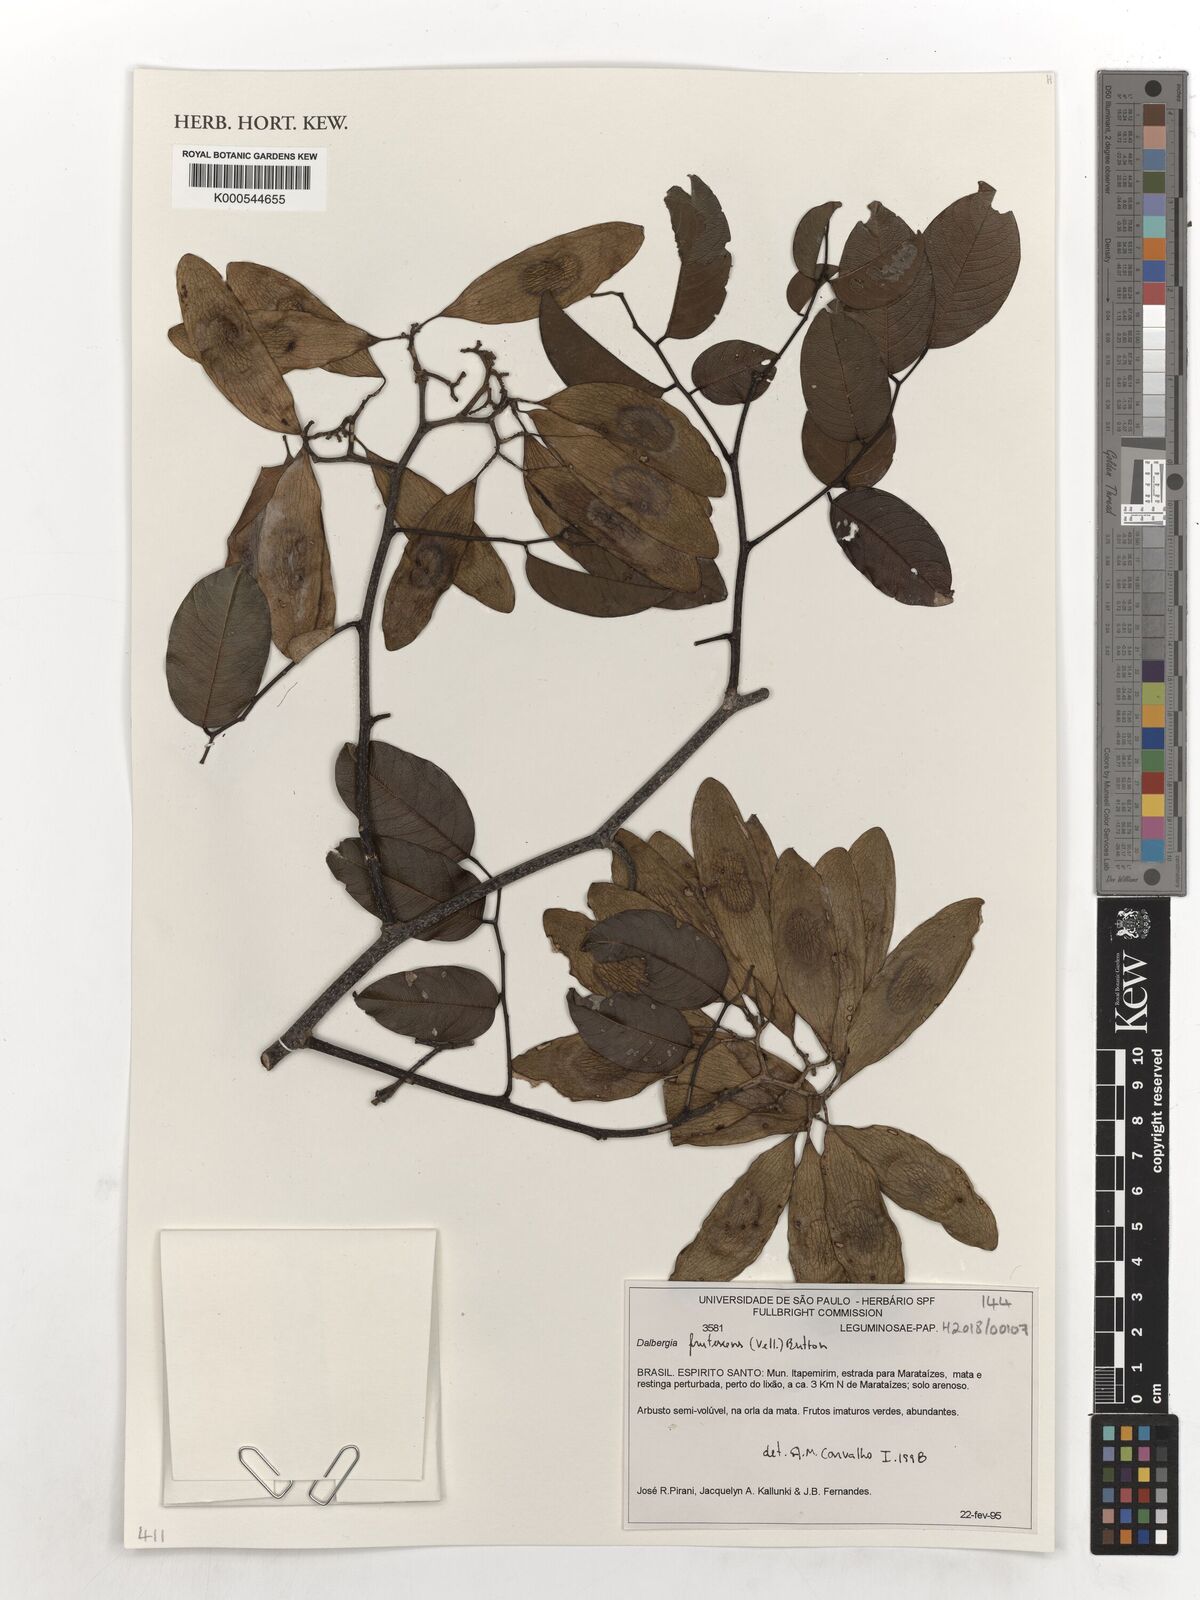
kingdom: Plantae
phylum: Tracheophyta
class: Magnoliopsida
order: Fabales
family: Fabaceae
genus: Dalbergia
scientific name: Dalbergia frutescens
